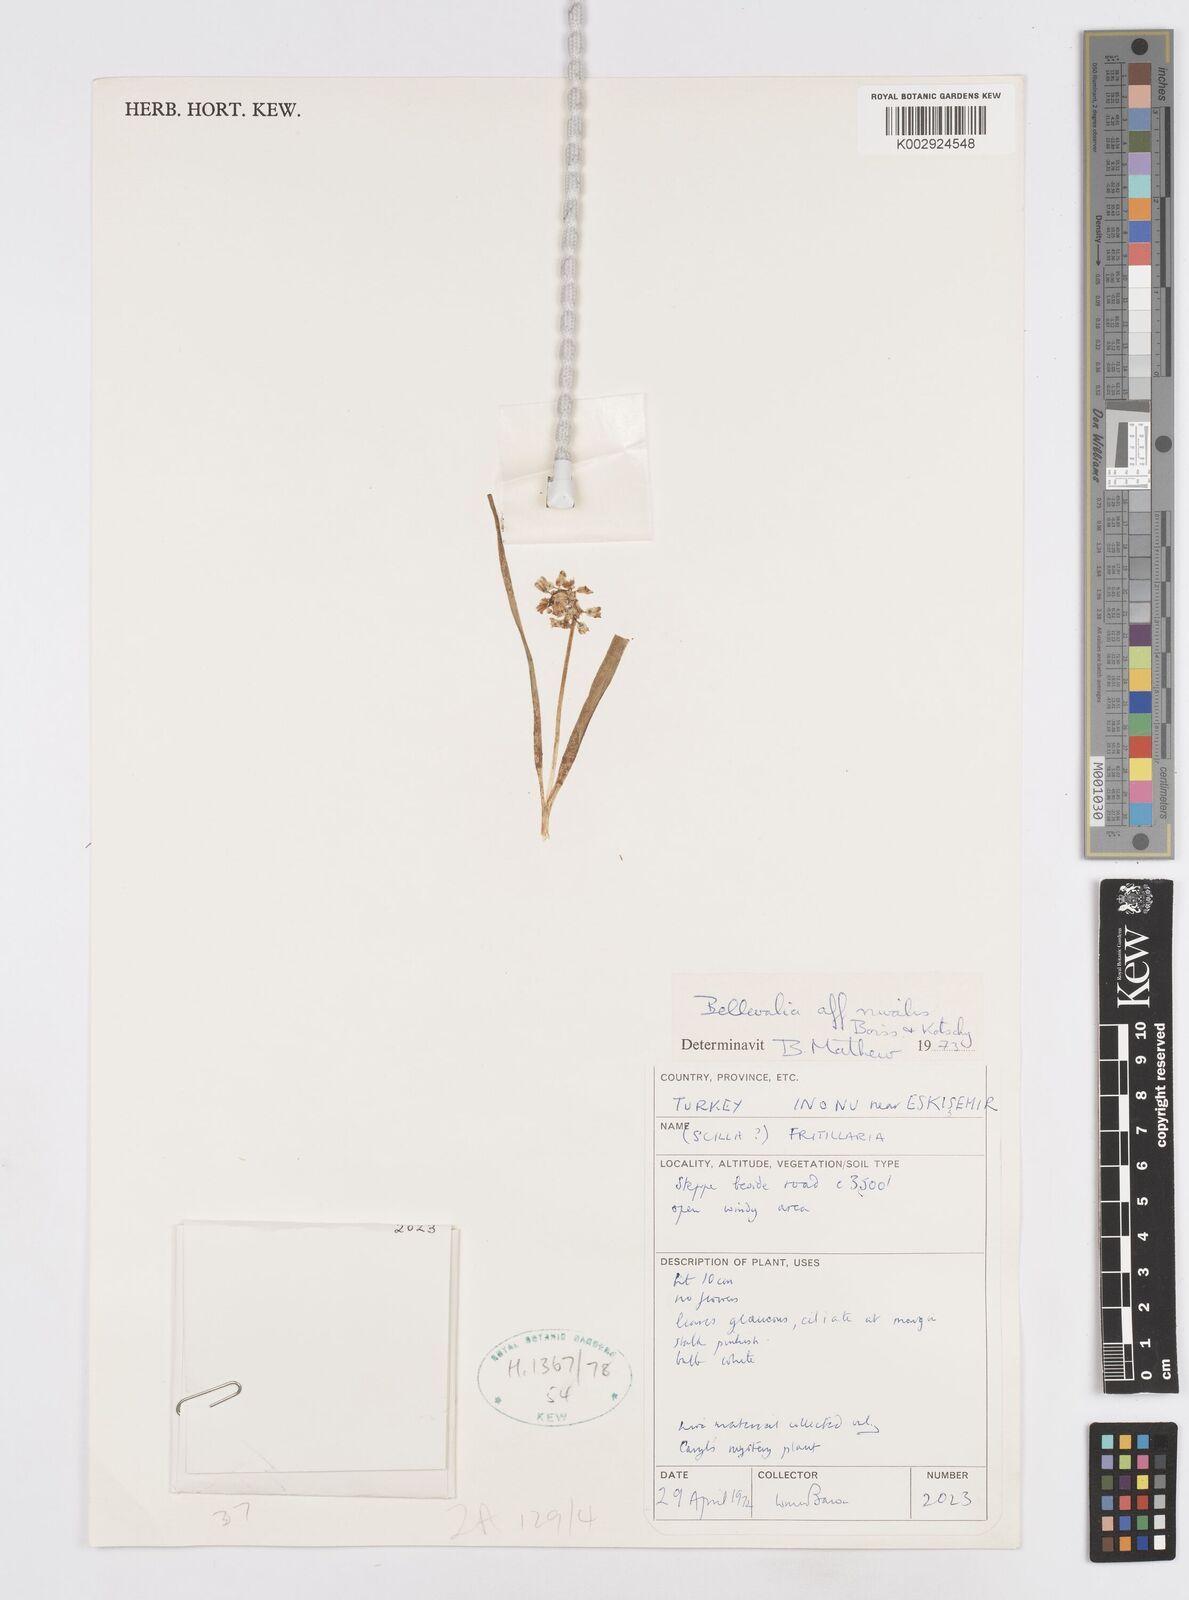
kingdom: Plantae
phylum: Tracheophyta
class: Liliopsida
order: Asparagales
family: Asparagaceae
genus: Bellevalia
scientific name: Bellevalia nivalis
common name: Snow bellevalia
